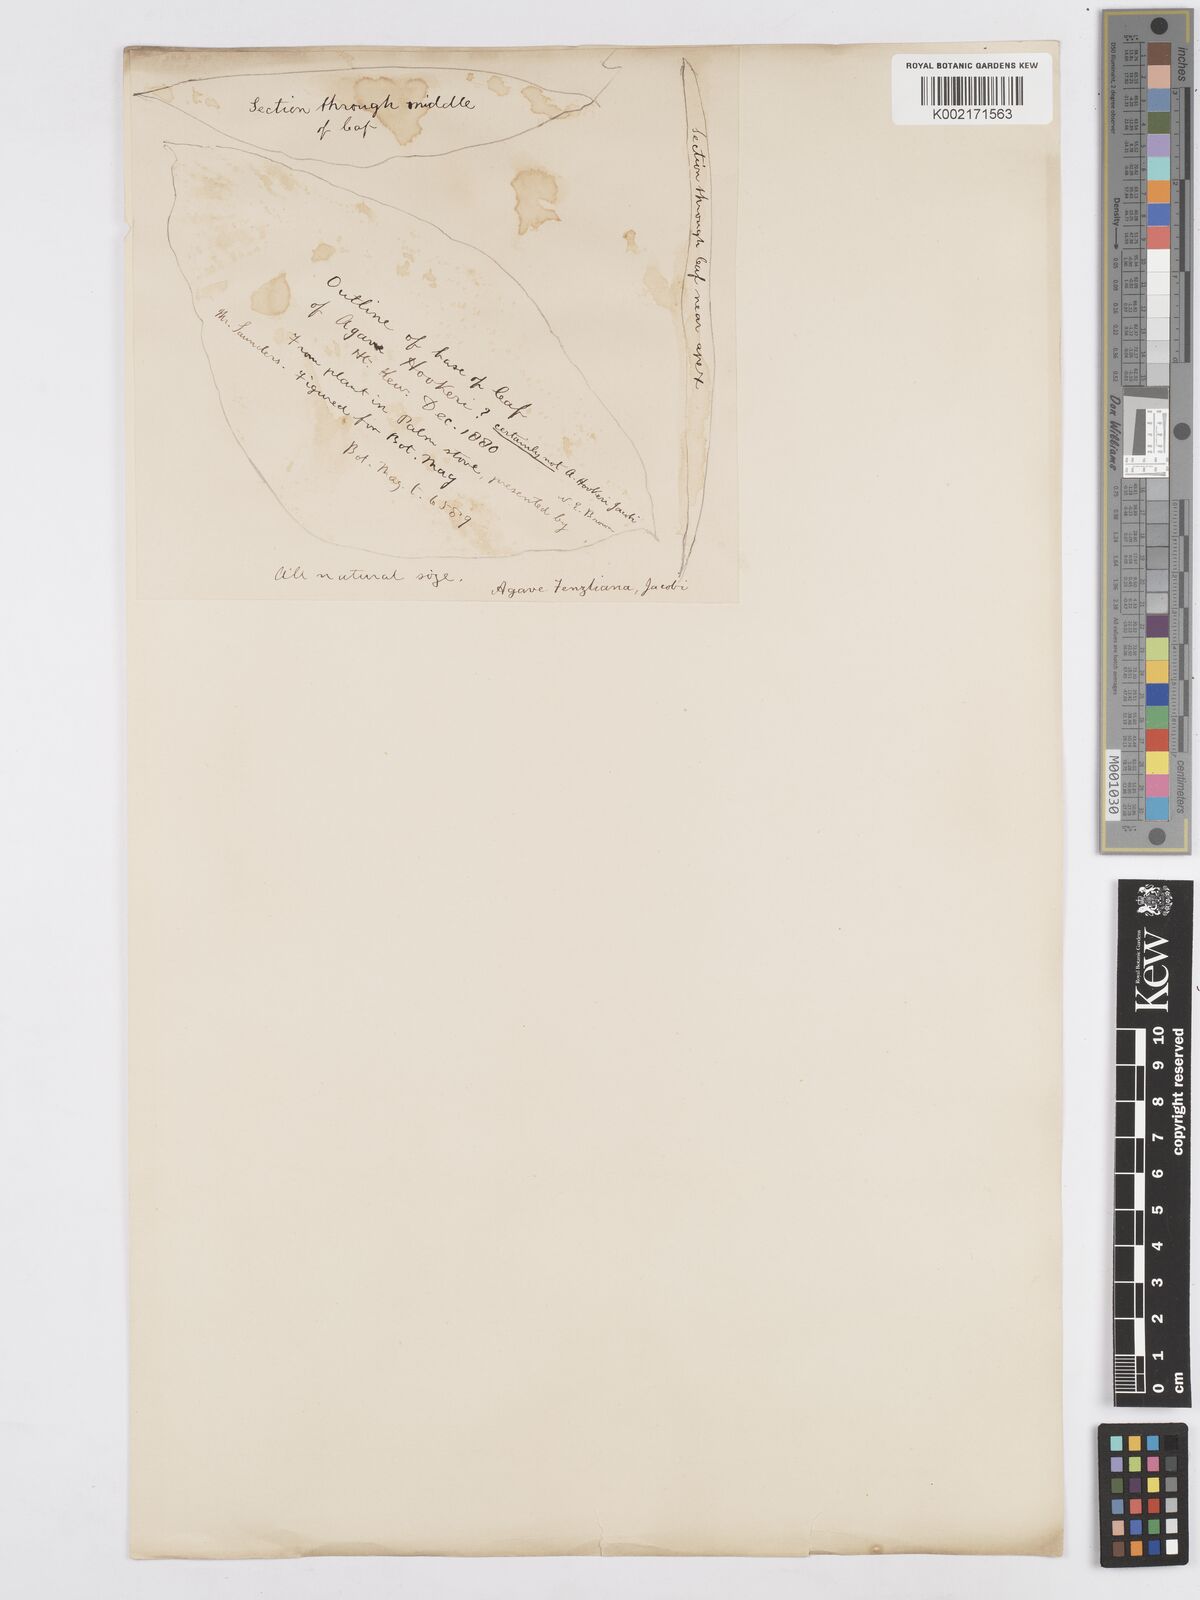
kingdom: Plantae
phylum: Tracheophyta
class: Liliopsida
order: Asparagales
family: Asparagaceae
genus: Agave
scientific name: Agave inaequidens
